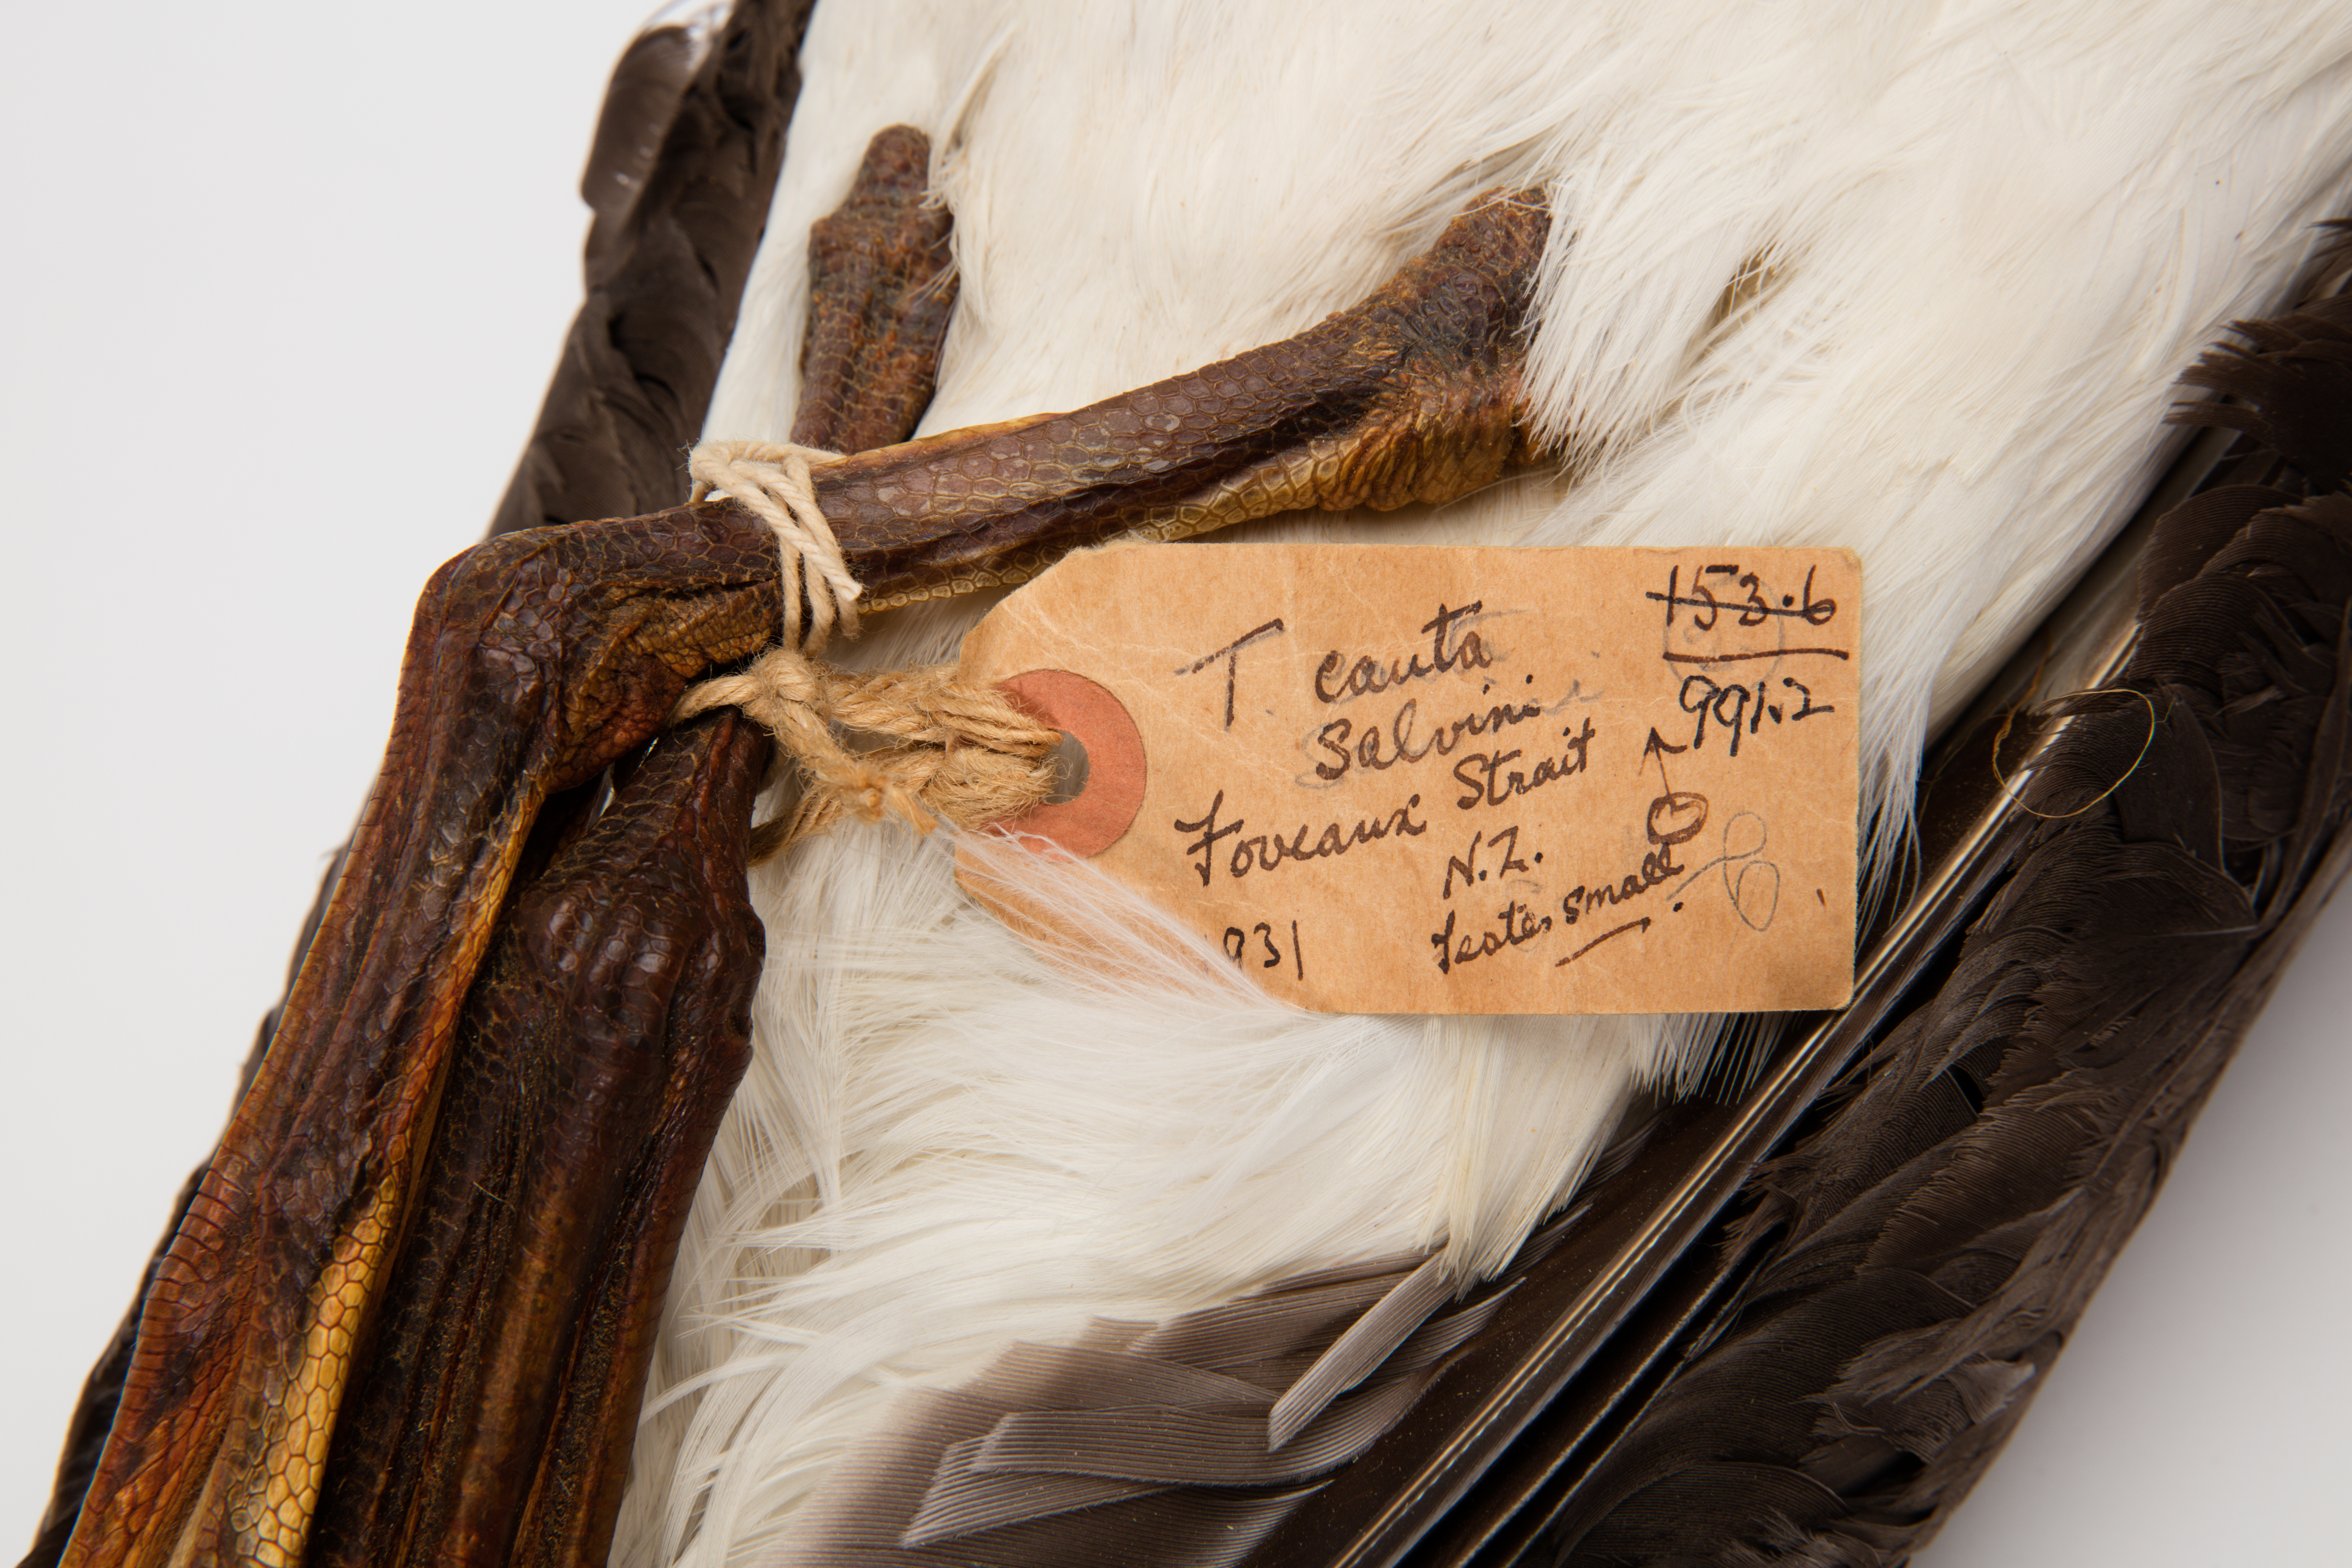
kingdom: Animalia
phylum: Chordata
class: Aves
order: Procellariiformes
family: Diomedeidae
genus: Thalassarche
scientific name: Thalassarche cauta
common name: Shy albatross
